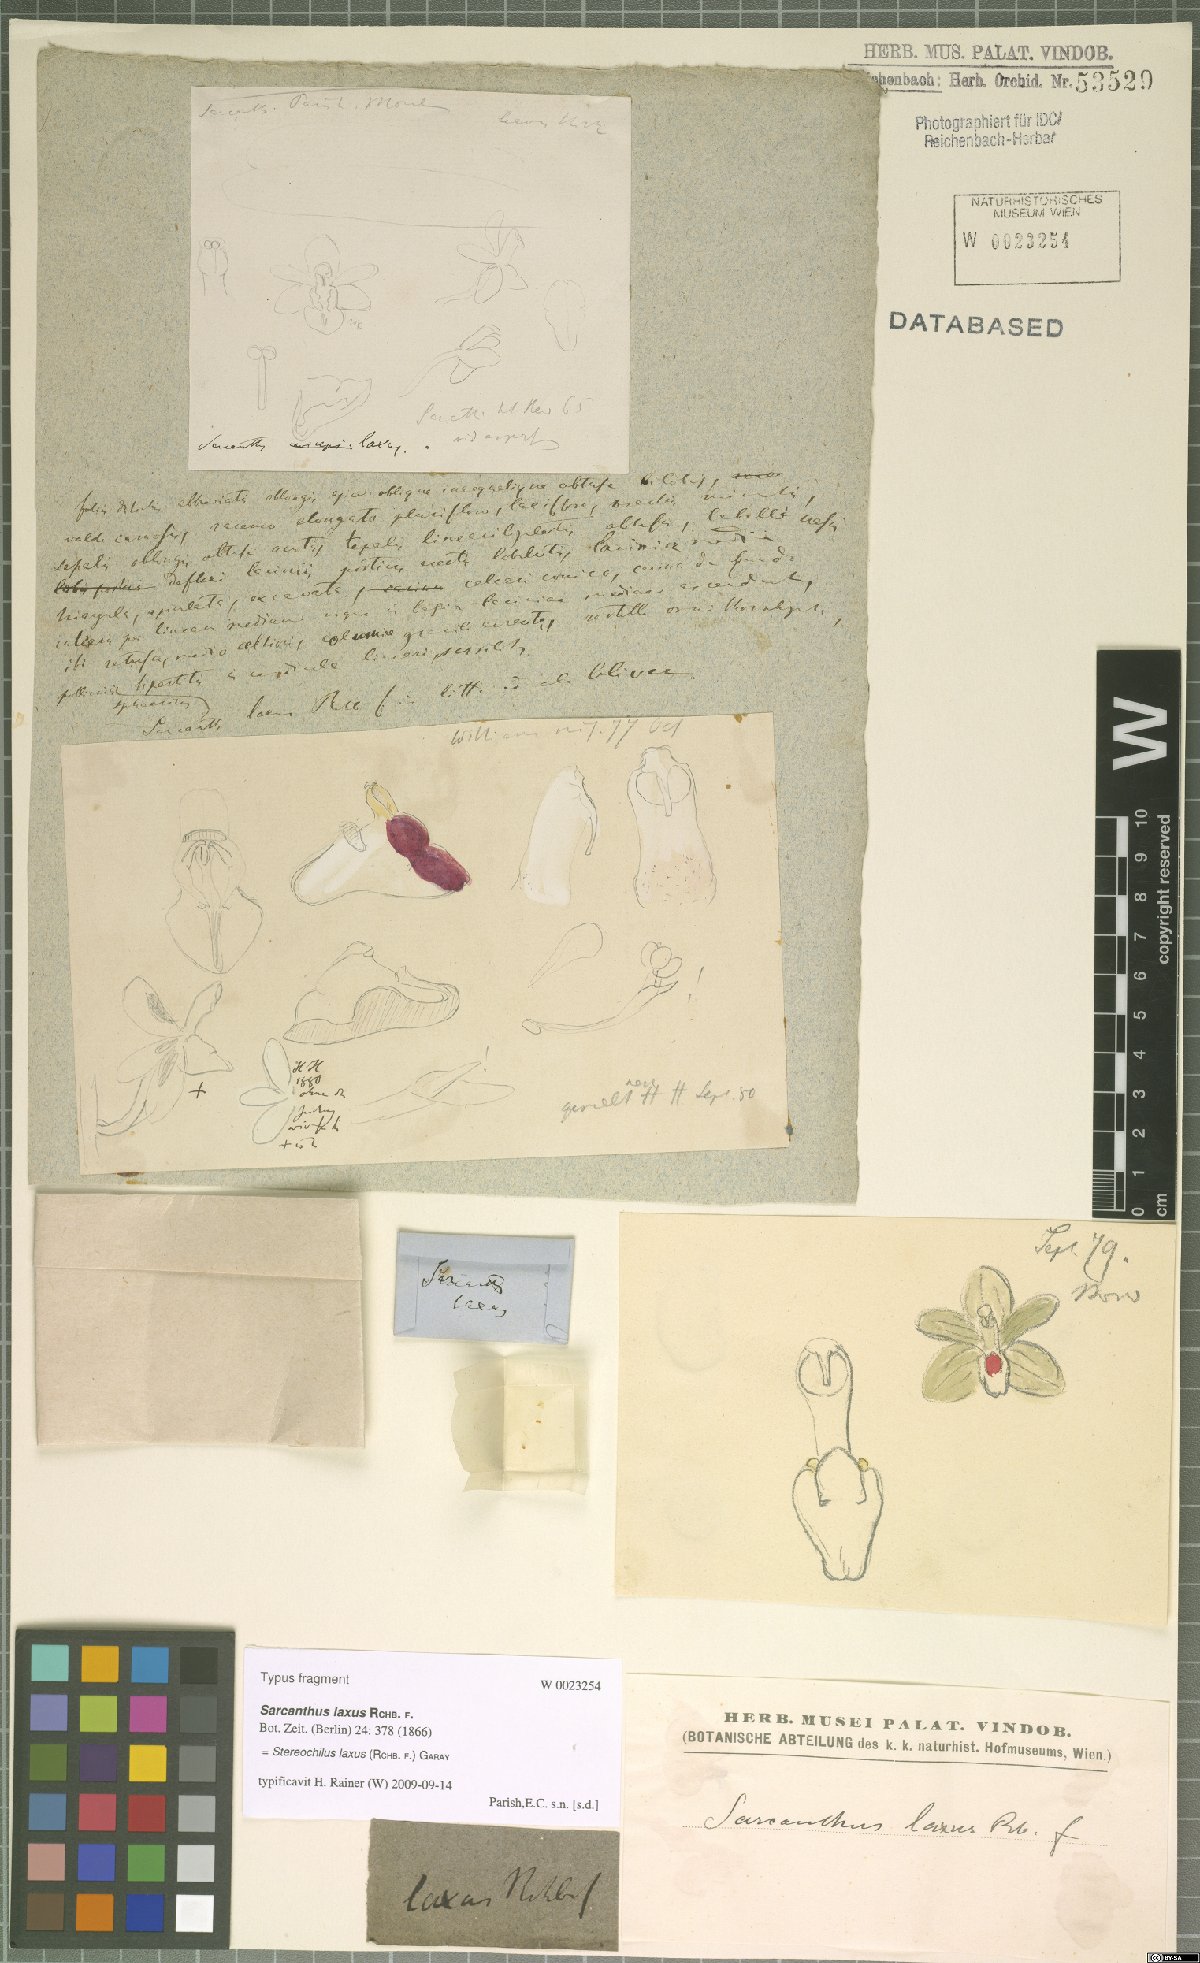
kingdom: Plantae
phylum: Tracheophyta
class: Liliopsida
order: Asparagales
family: Orchidaceae
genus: Stereochilus
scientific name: Stereochilus laxus
